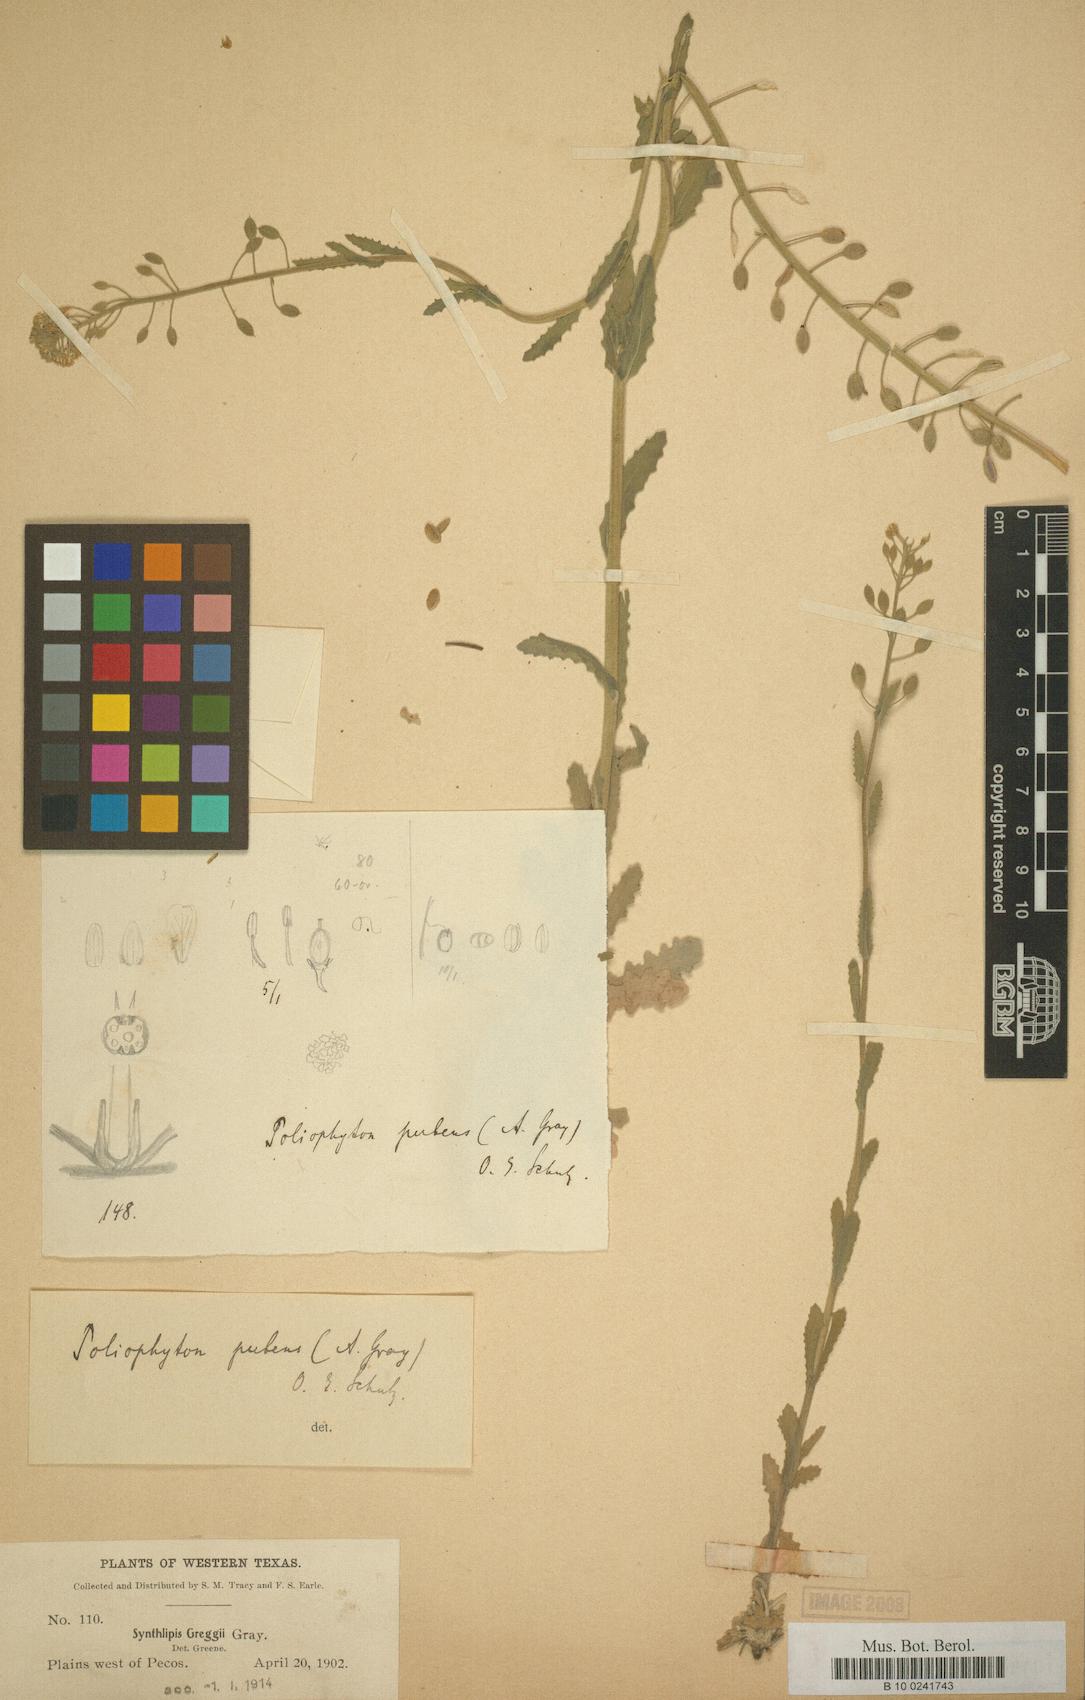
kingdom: Plantae
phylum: Tracheophyta
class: Magnoliopsida
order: Brassicales
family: Brassicaceae
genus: Halimolobos
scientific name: Halimolobos pubens
